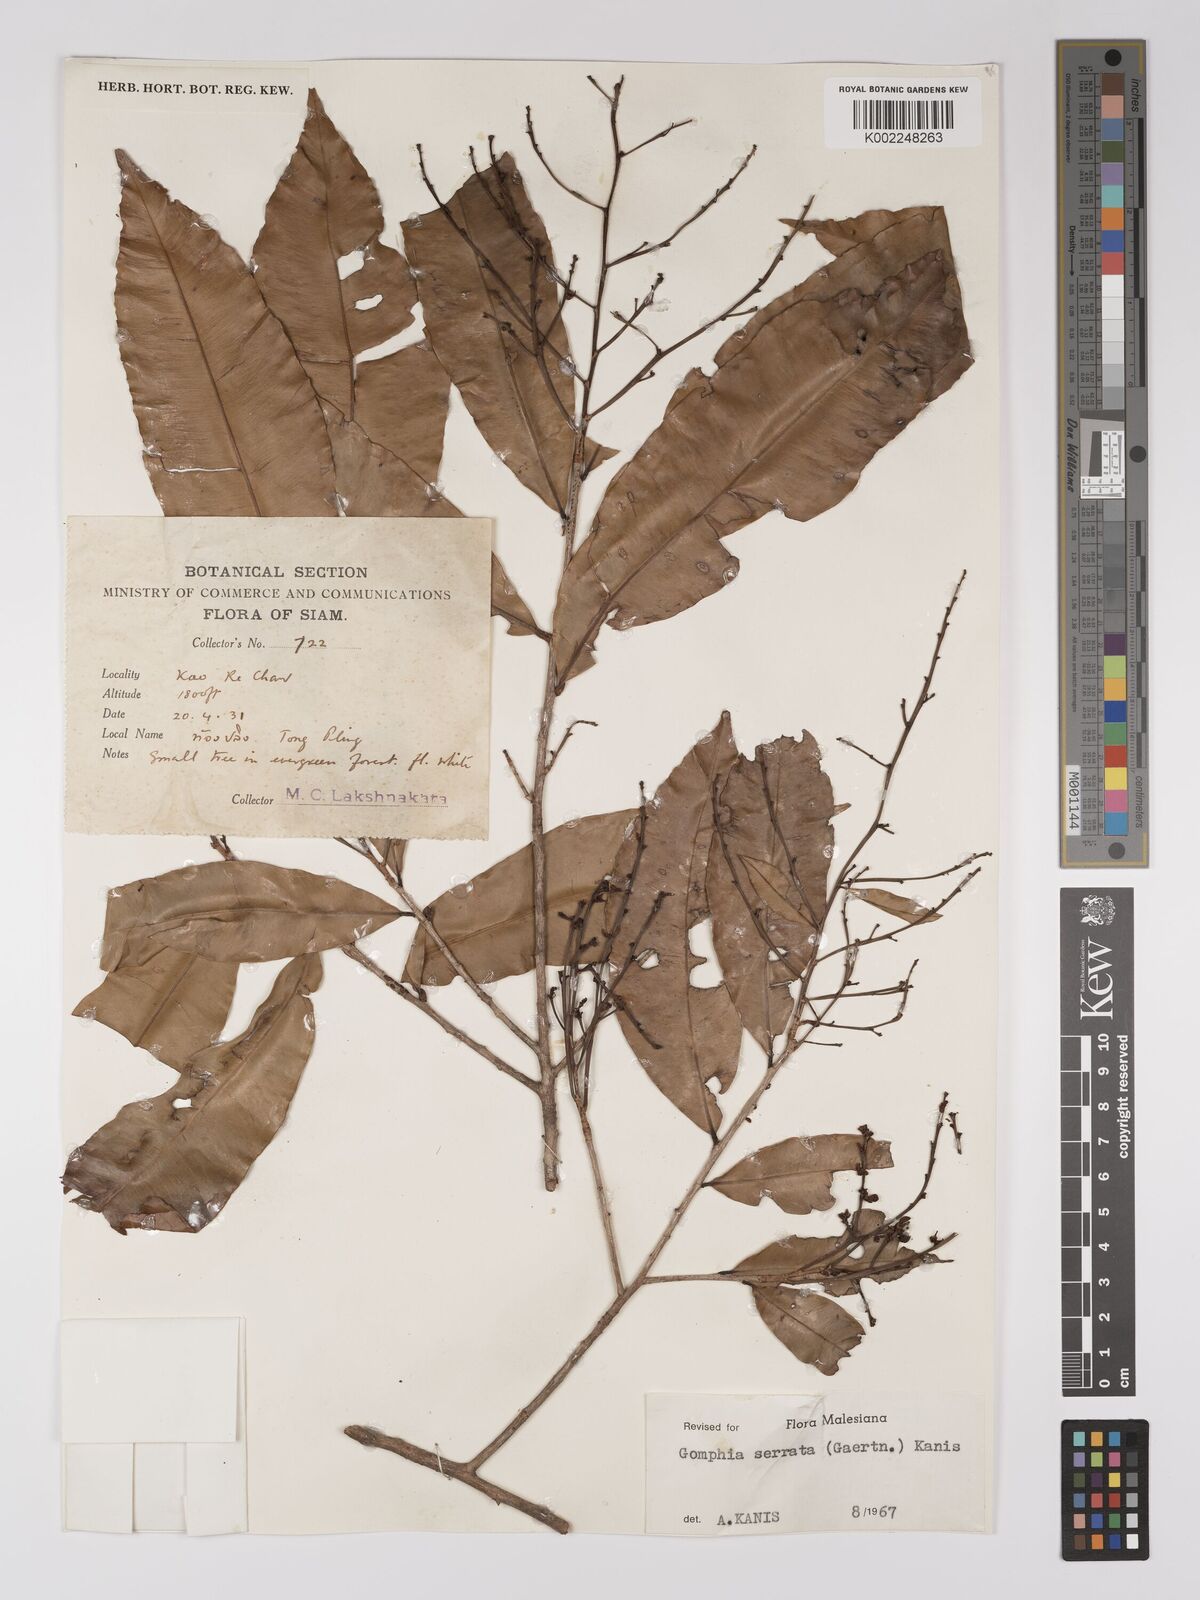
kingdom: Plantae
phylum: Tracheophyta
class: Magnoliopsida
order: Malpighiales
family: Ochnaceae
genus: Gomphia
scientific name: Gomphia serrata
